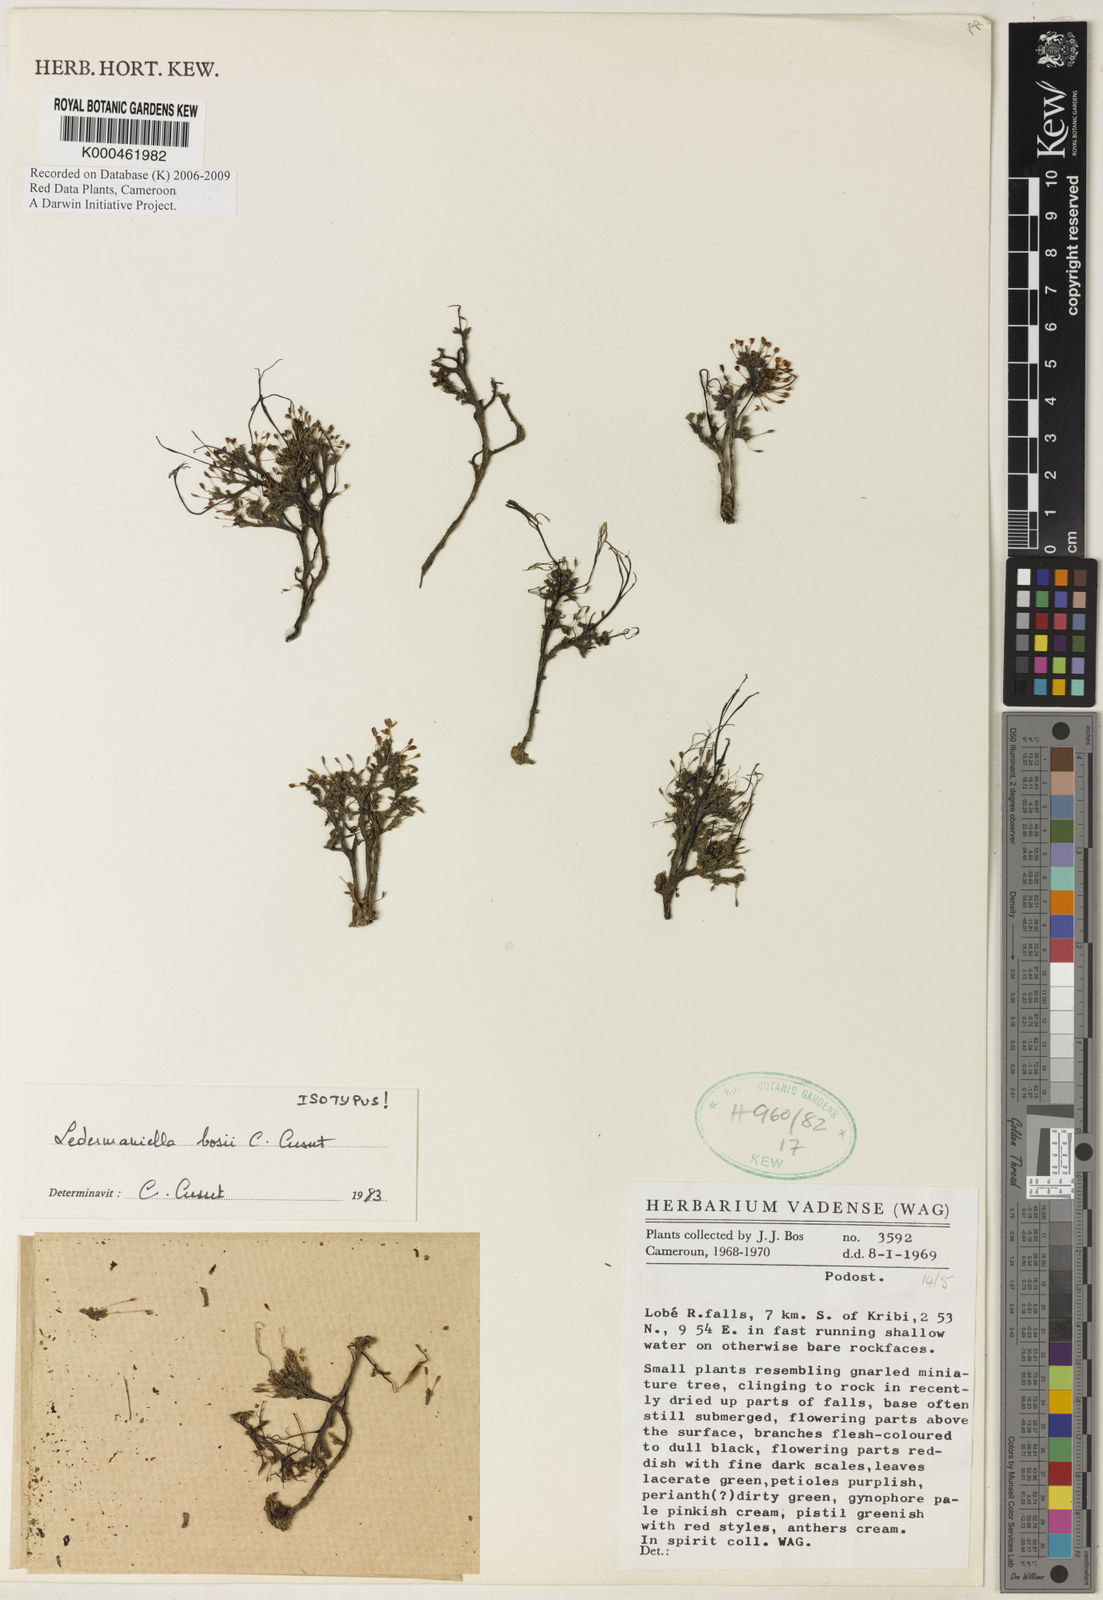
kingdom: Plantae
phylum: Tracheophyta
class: Magnoliopsida
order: Malpighiales
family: Podostemaceae
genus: Inversodicraea
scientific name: Inversodicraea bosii
